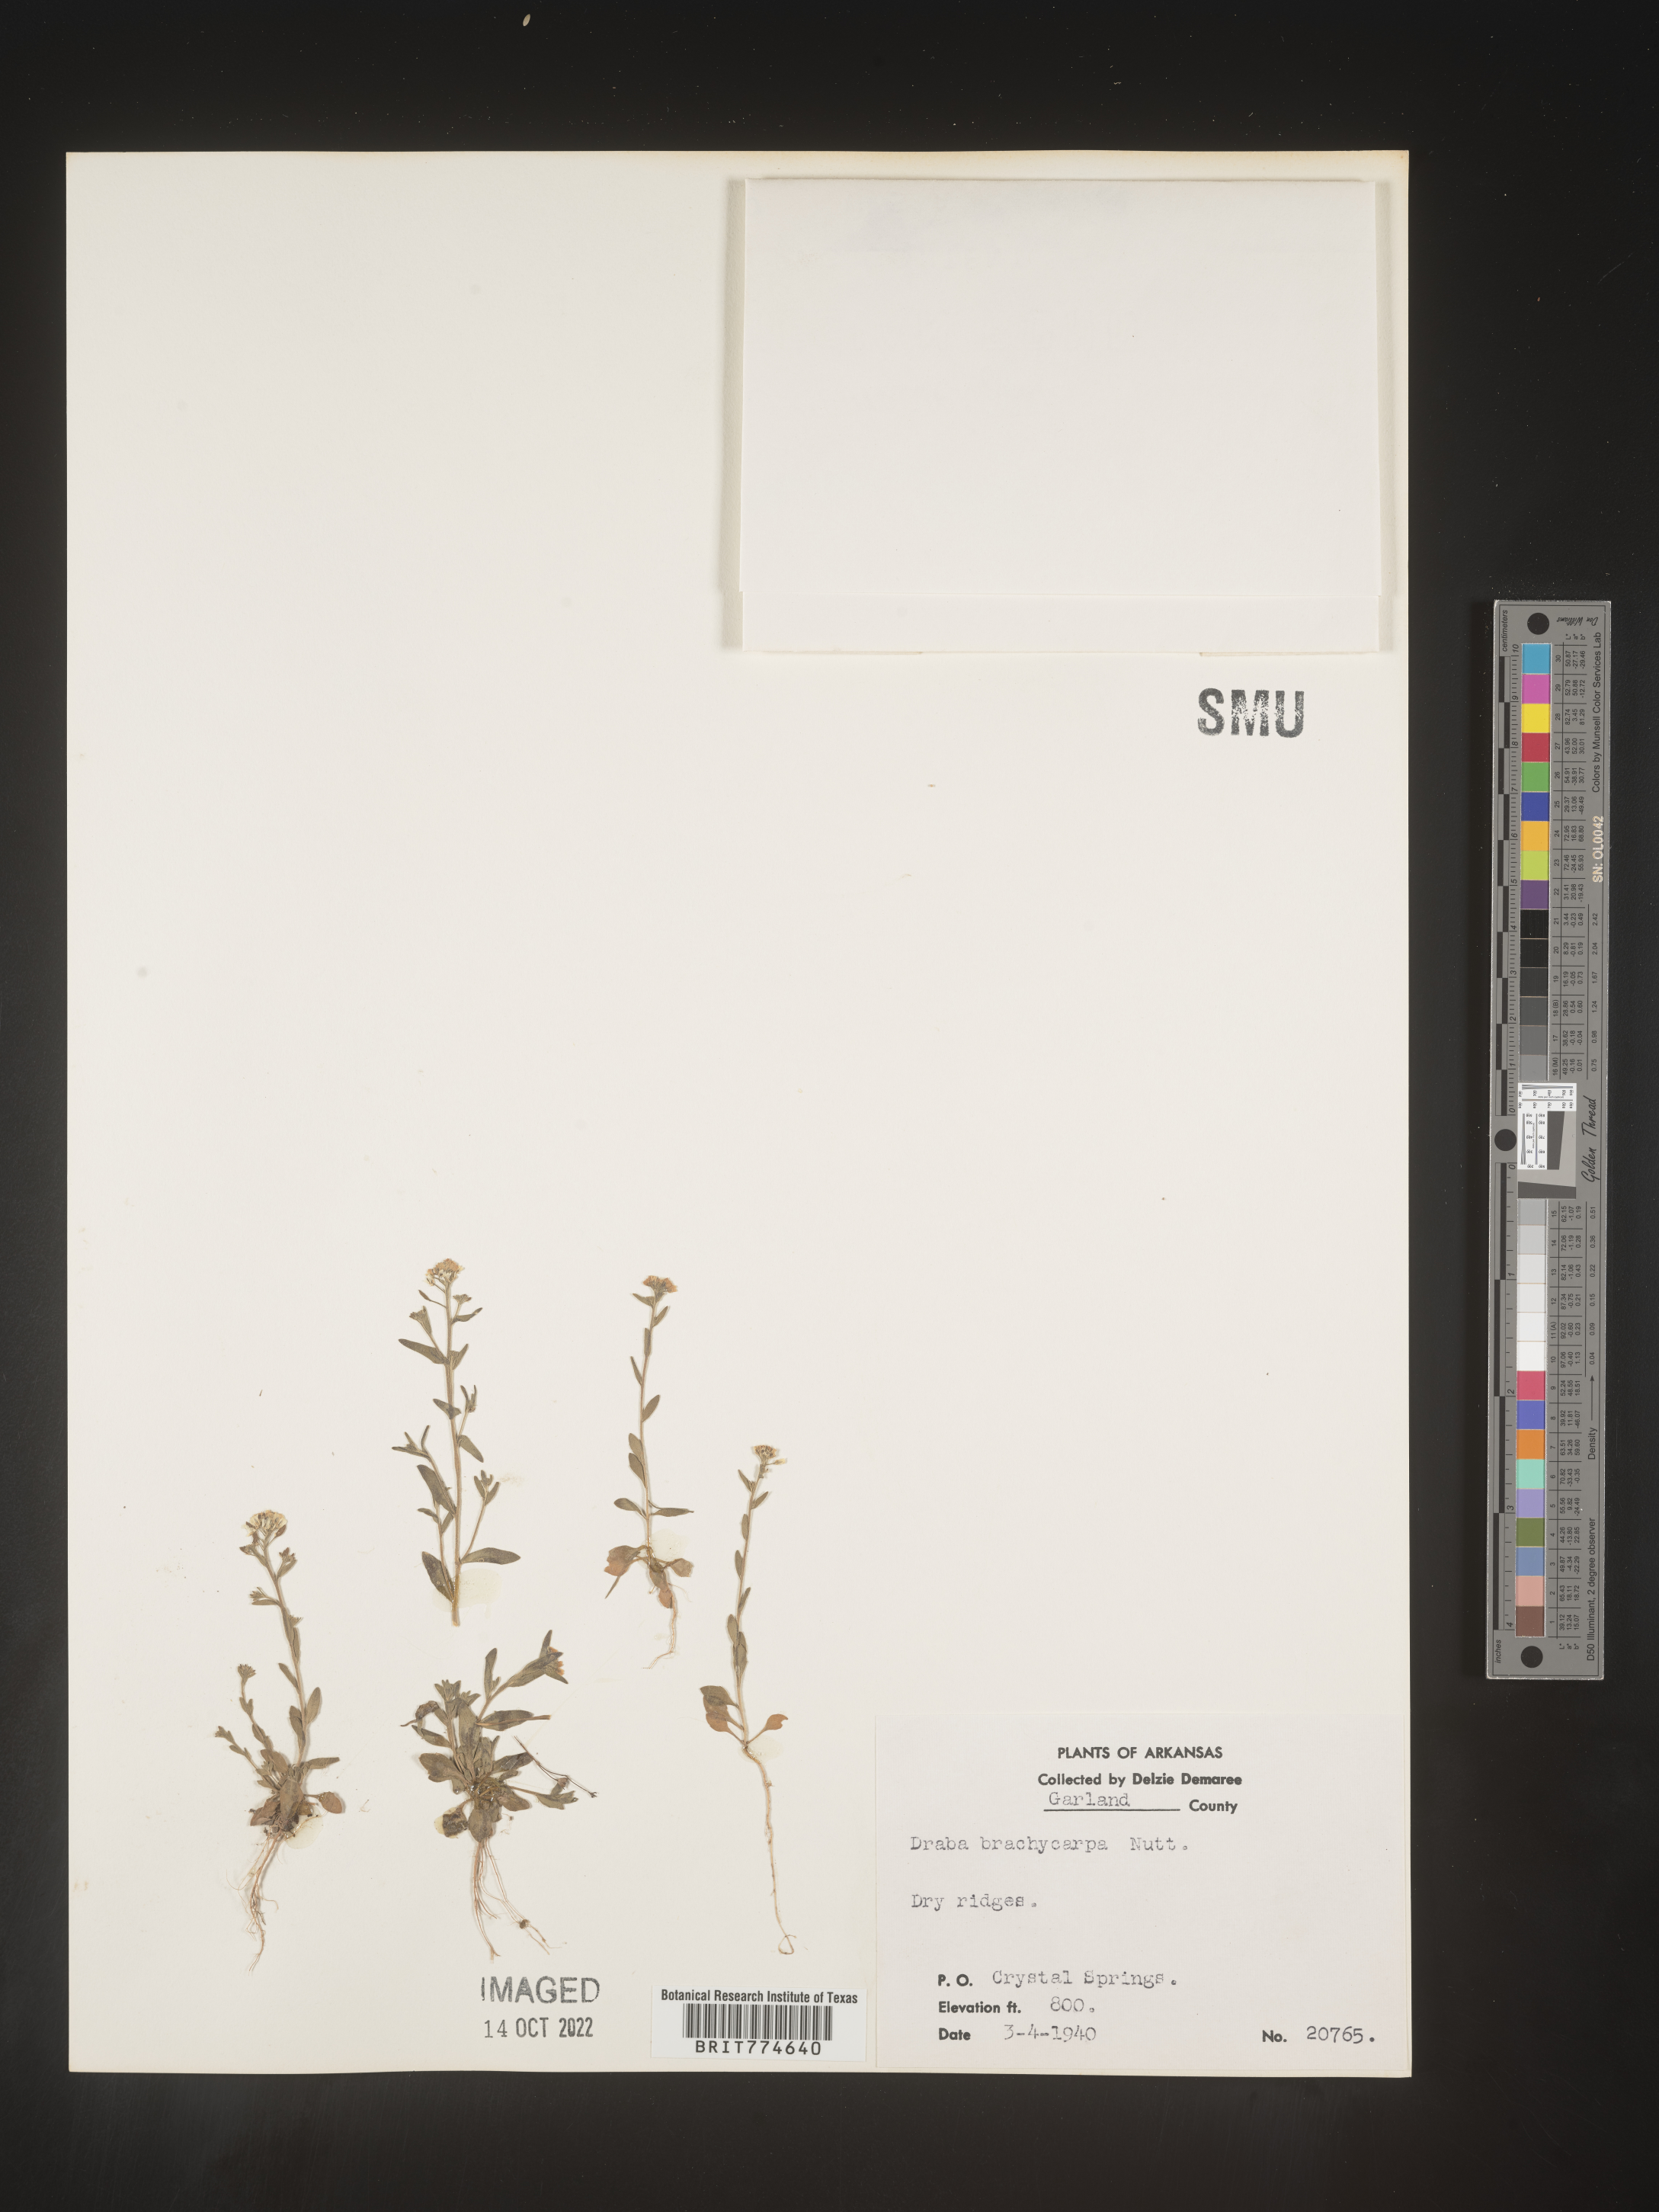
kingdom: Plantae
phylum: Tracheophyta
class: Magnoliopsida
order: Brassicales
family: Brassicaceae
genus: Abdra
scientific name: Abdra brachycarpa
